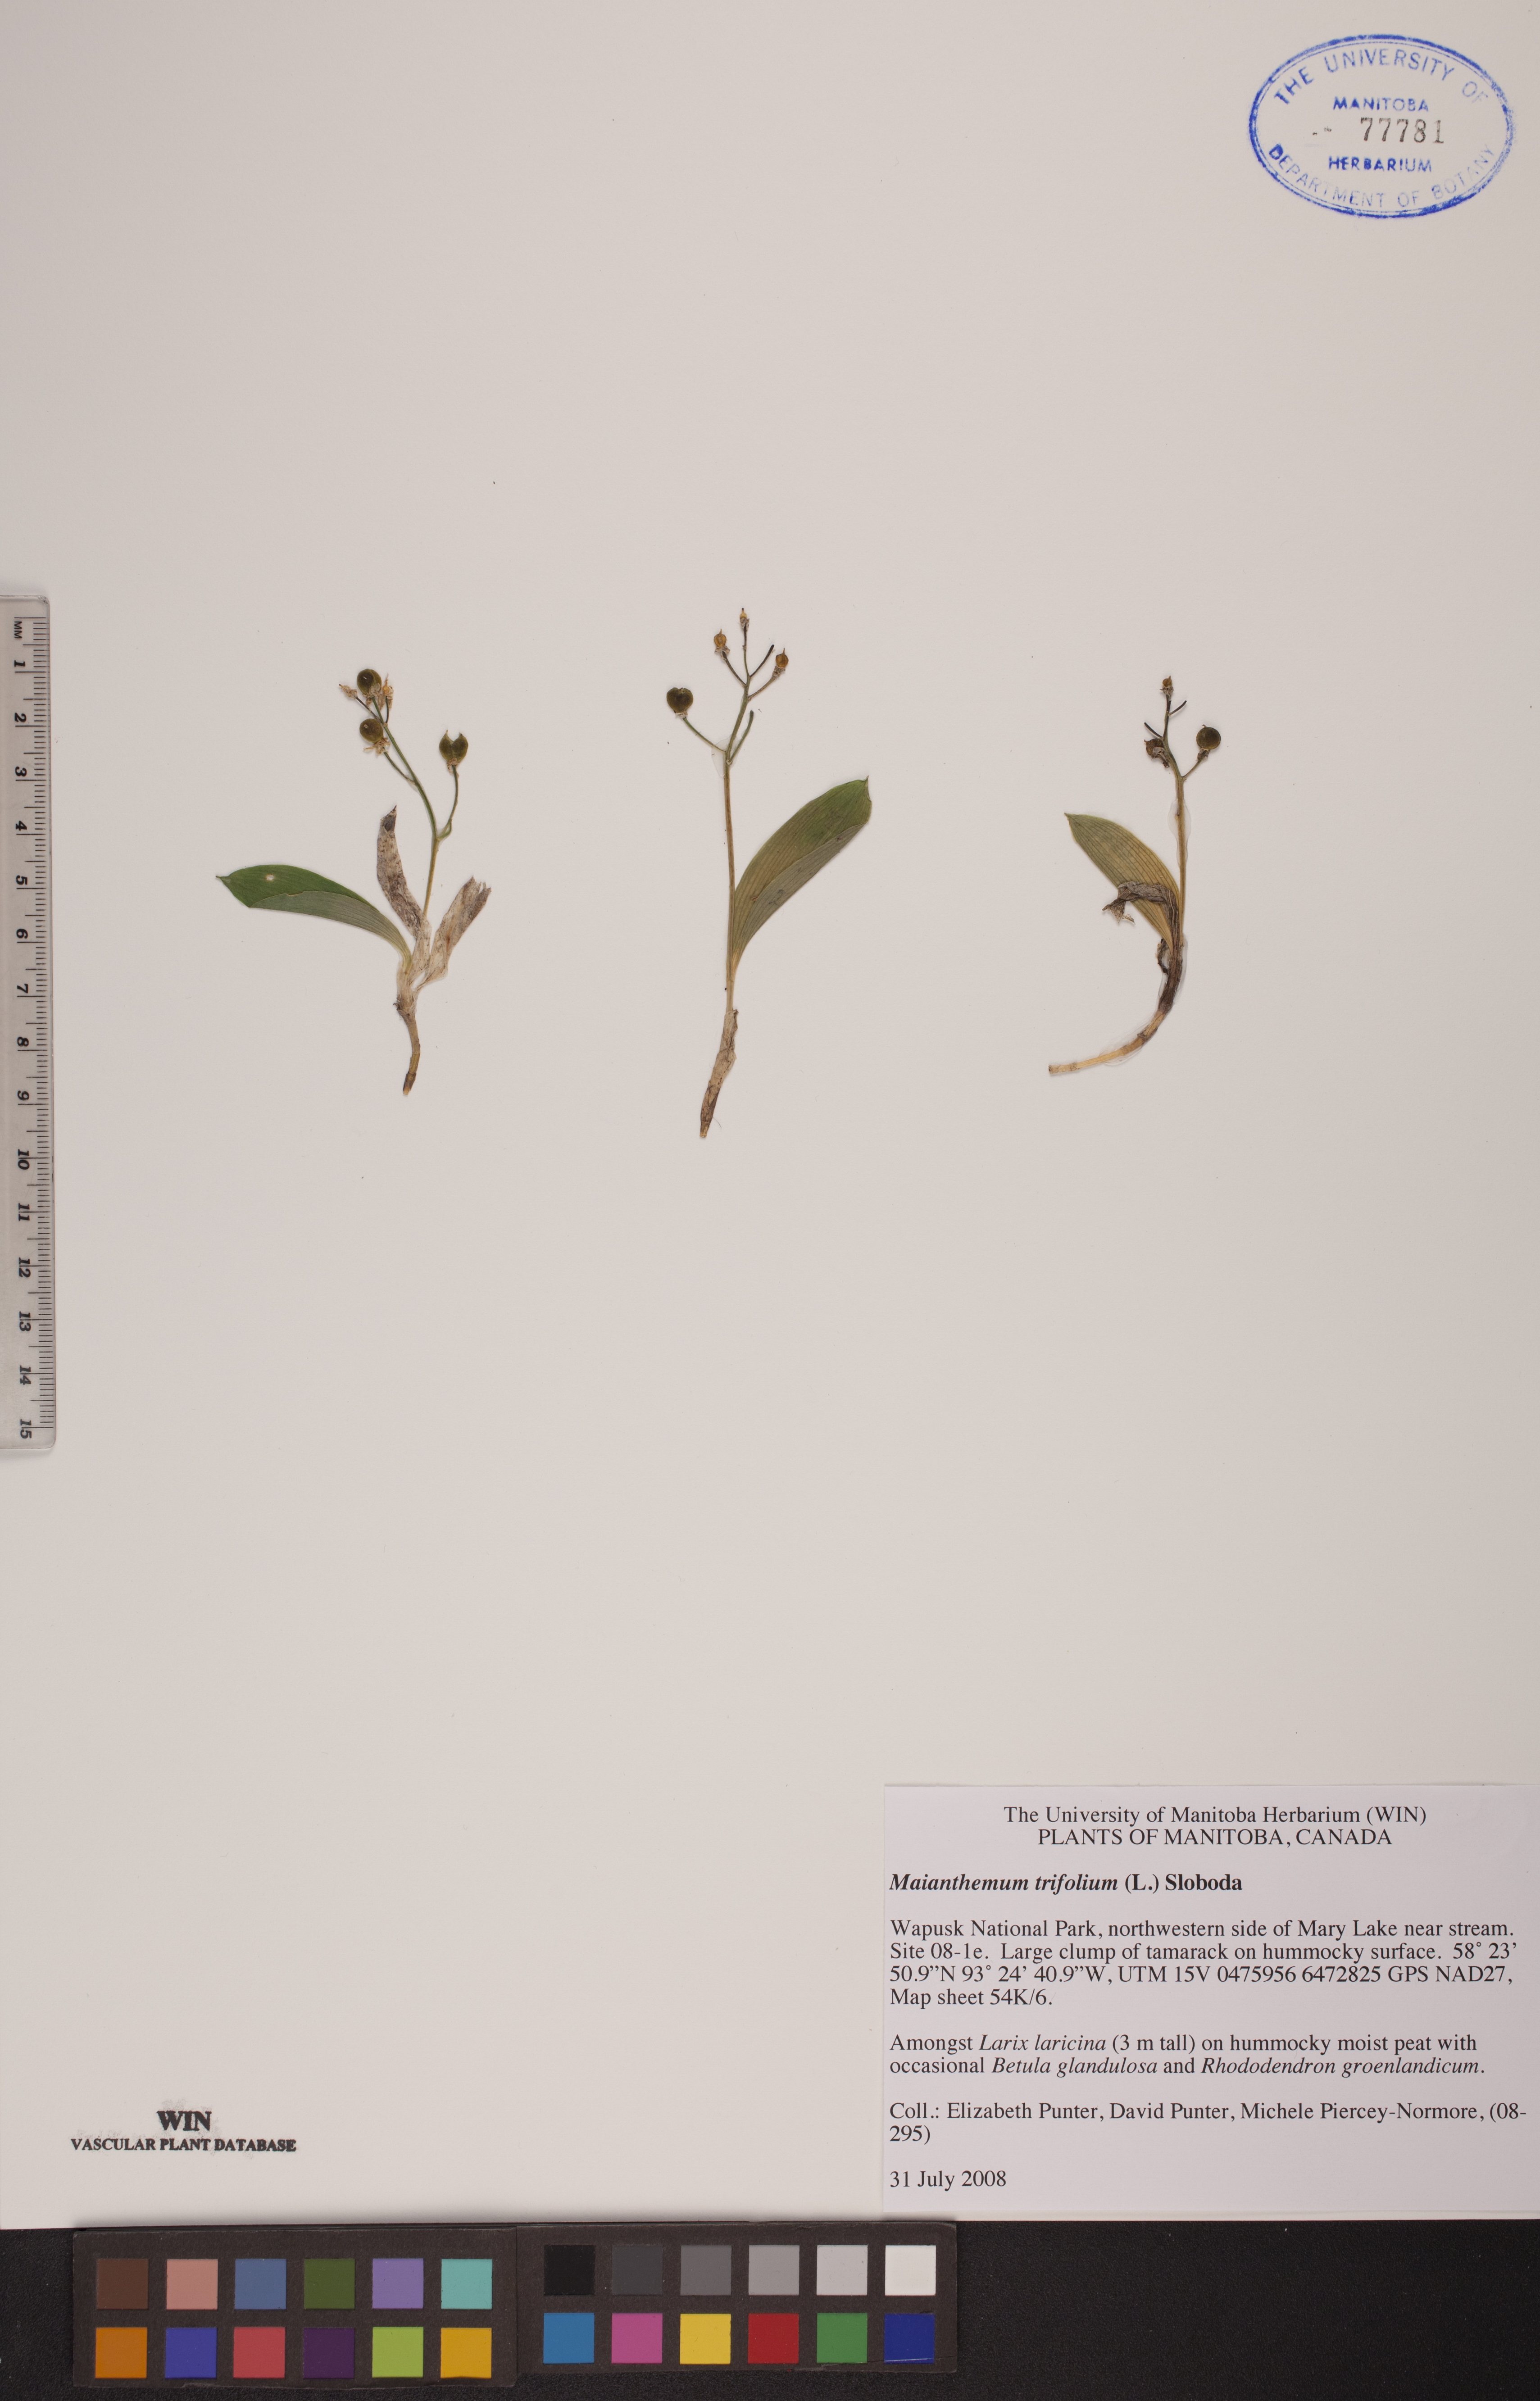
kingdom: Plantae
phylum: Tracheophyta
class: Liliopsida
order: Asparagales
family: Asparagaceae
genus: Maianthemum
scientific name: Maianthemum trifolium
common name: Swamp false solomon's seal
